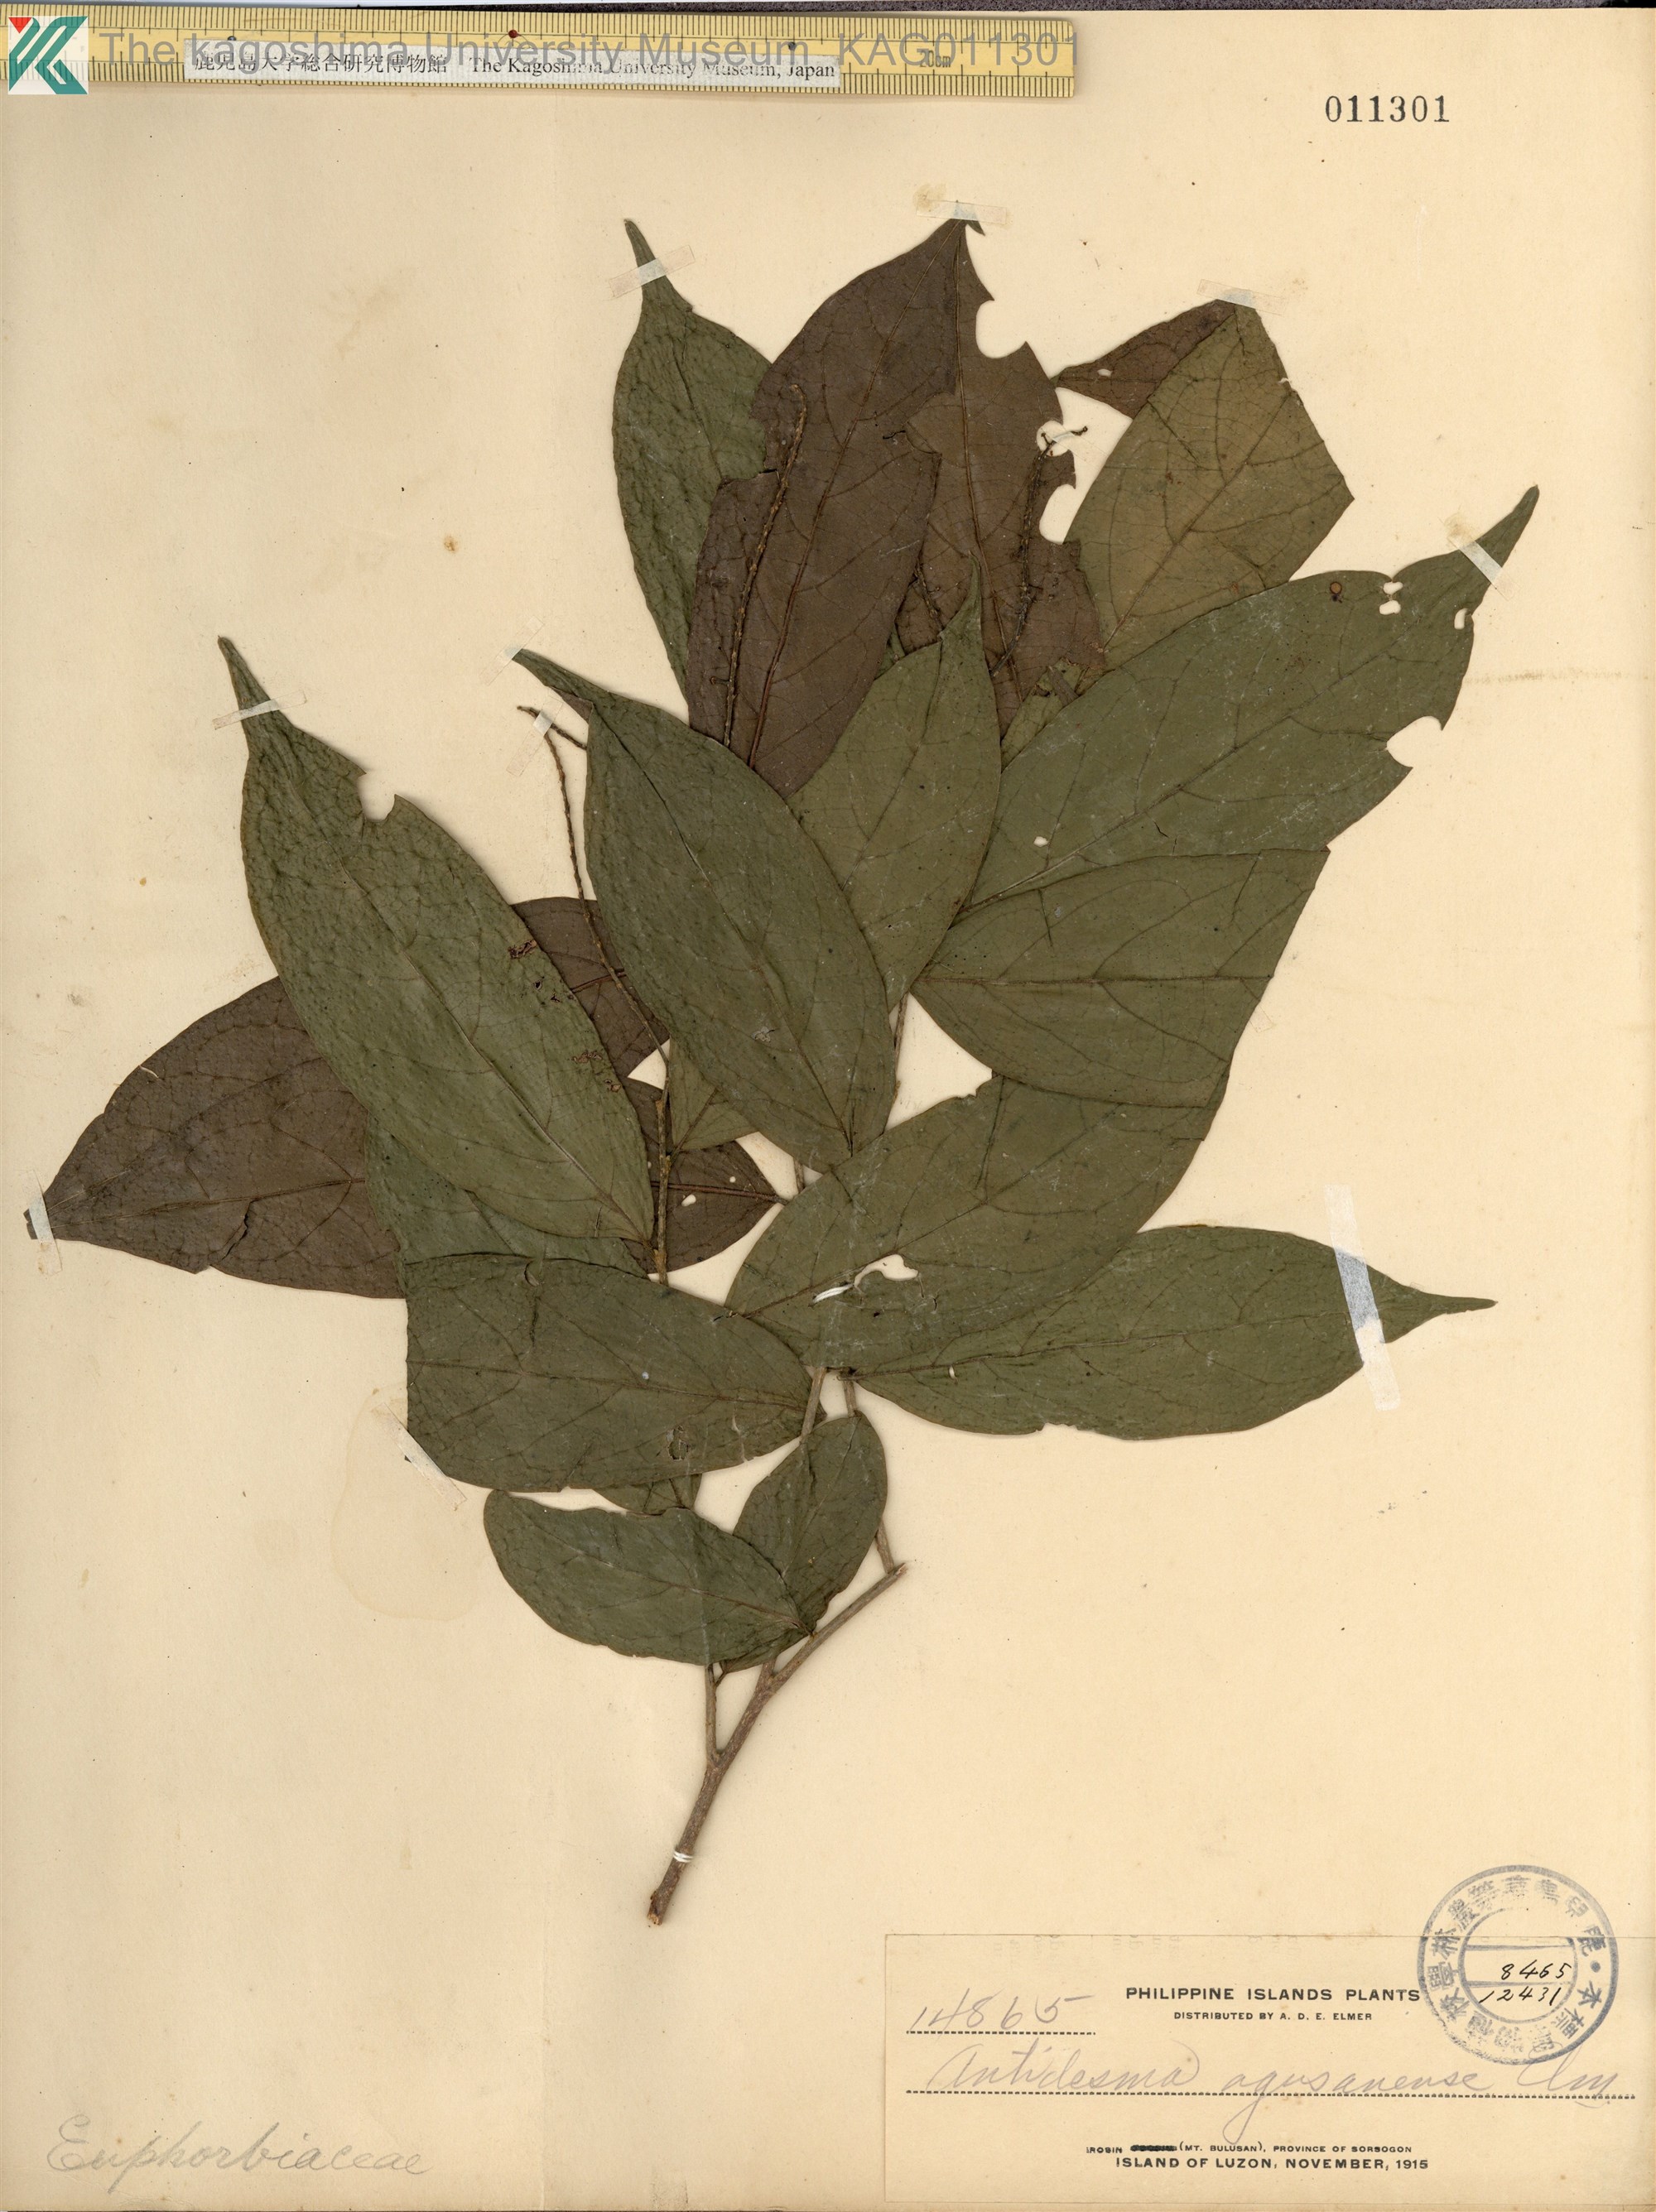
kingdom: Plantae
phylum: Tracheophyta
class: Magnoliopsida
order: Malpighiales
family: Phyllanthaceae
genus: Antidesma
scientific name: Antidesma montanum
